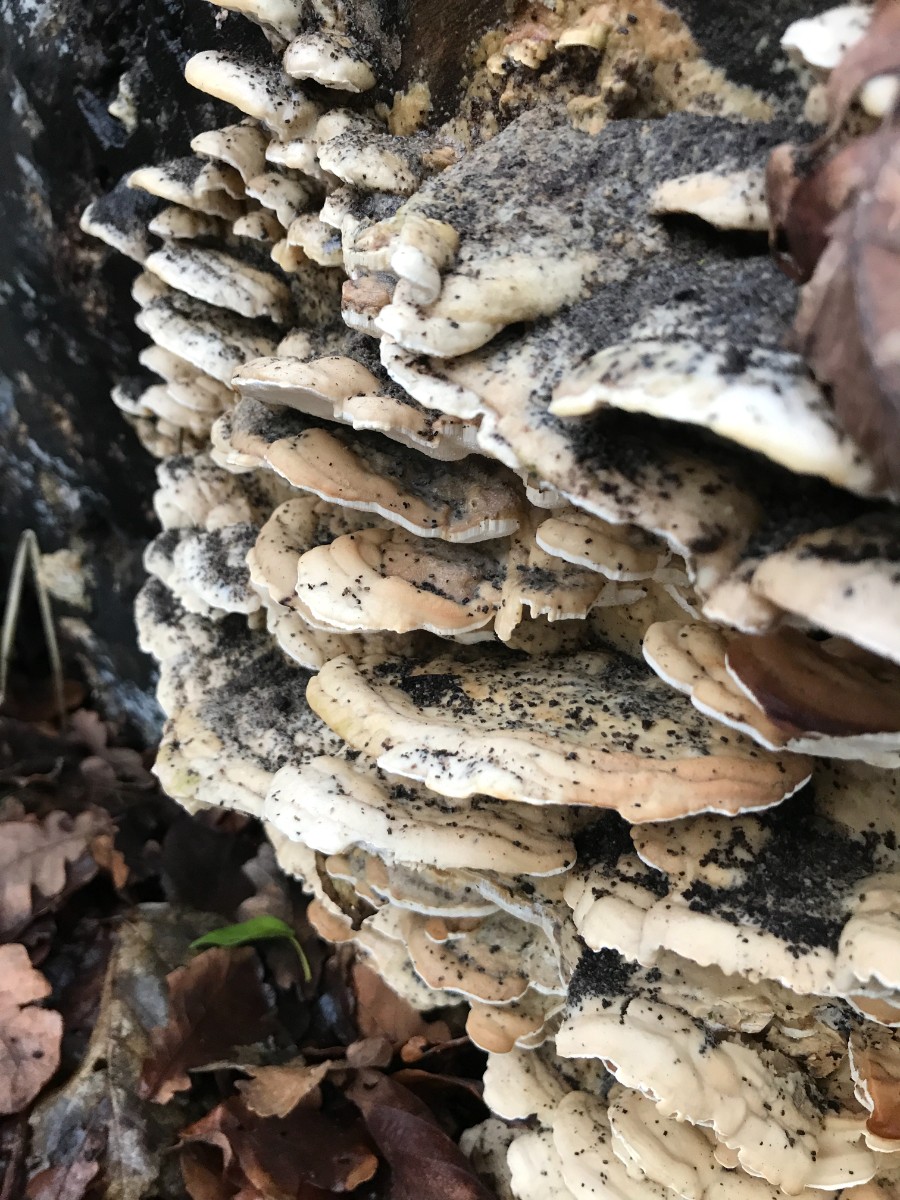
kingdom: Fungi
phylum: Basidiomycota
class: Agaricomycetes
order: Hymenochaetales
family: Oxyporaceae
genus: Oxyporus
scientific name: Oxyporus populinus
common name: sammenvokset trylleporesvamp
